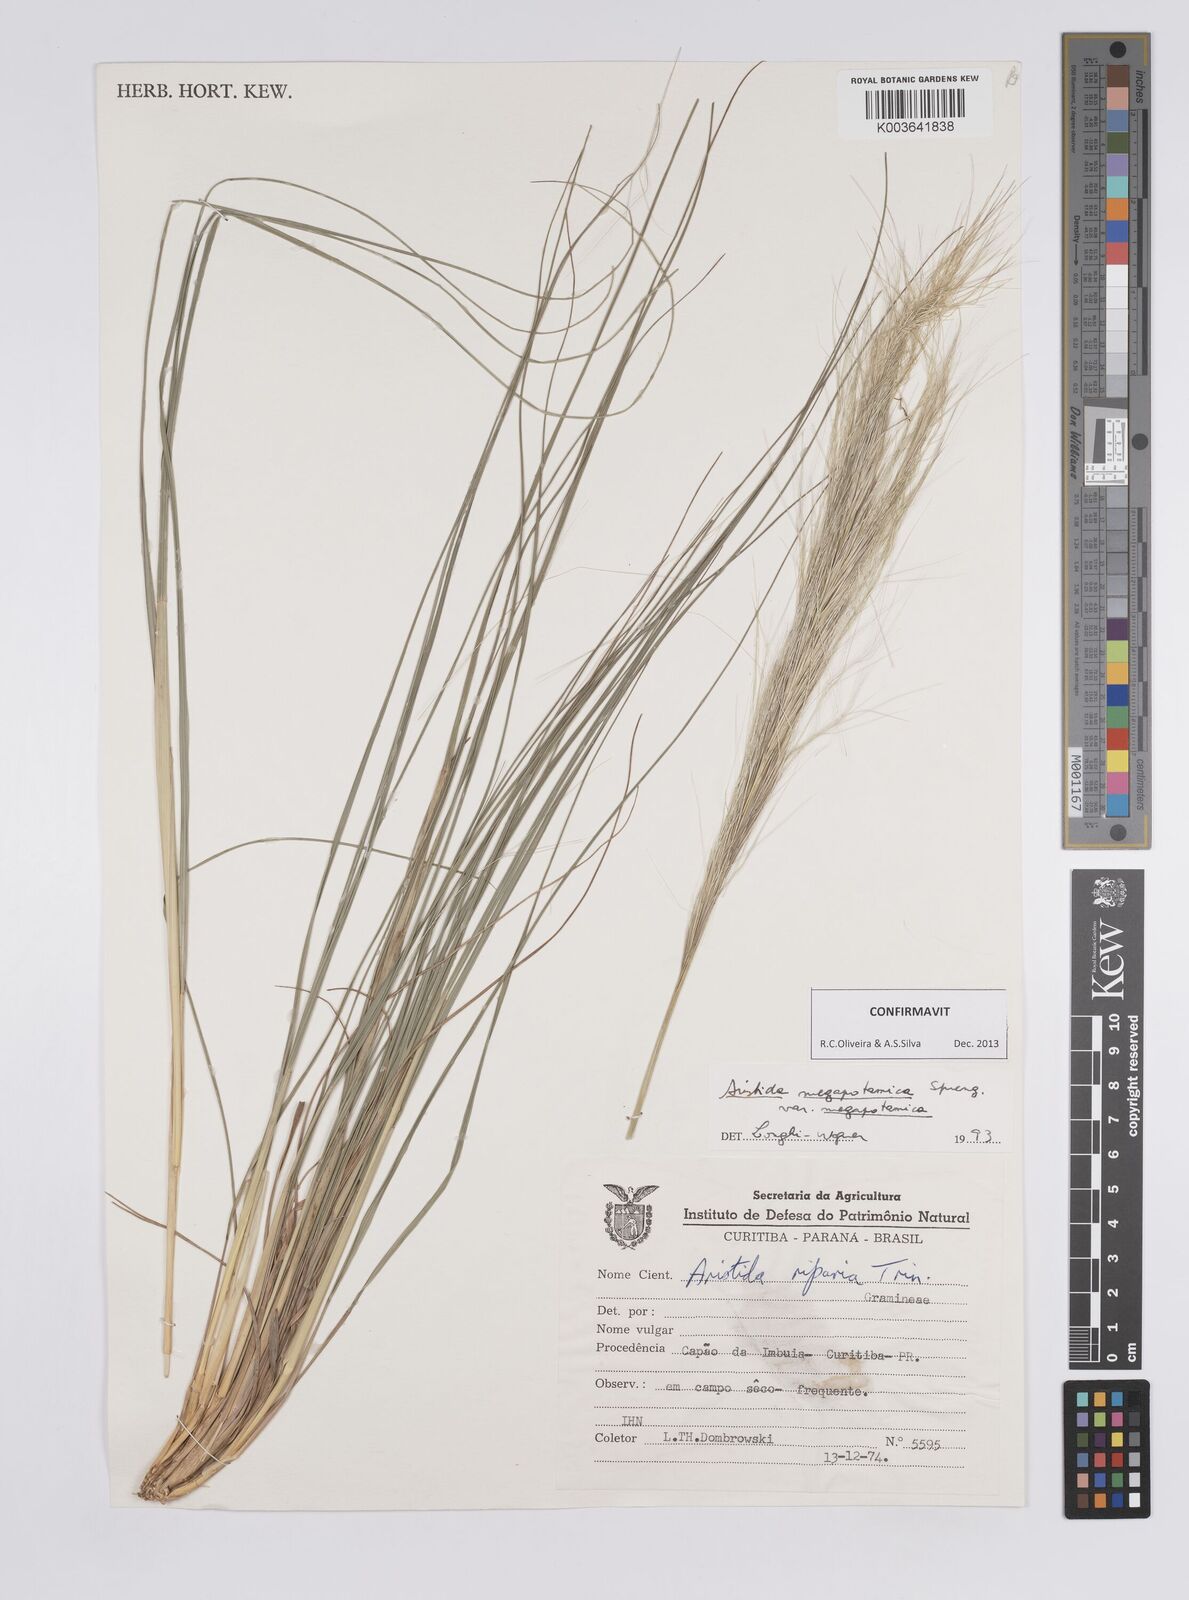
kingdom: Plantae
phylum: Tracheophyta
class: Liliopsida
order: Poales
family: Poaceae
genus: Aristida
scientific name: Aristida megapotamica
